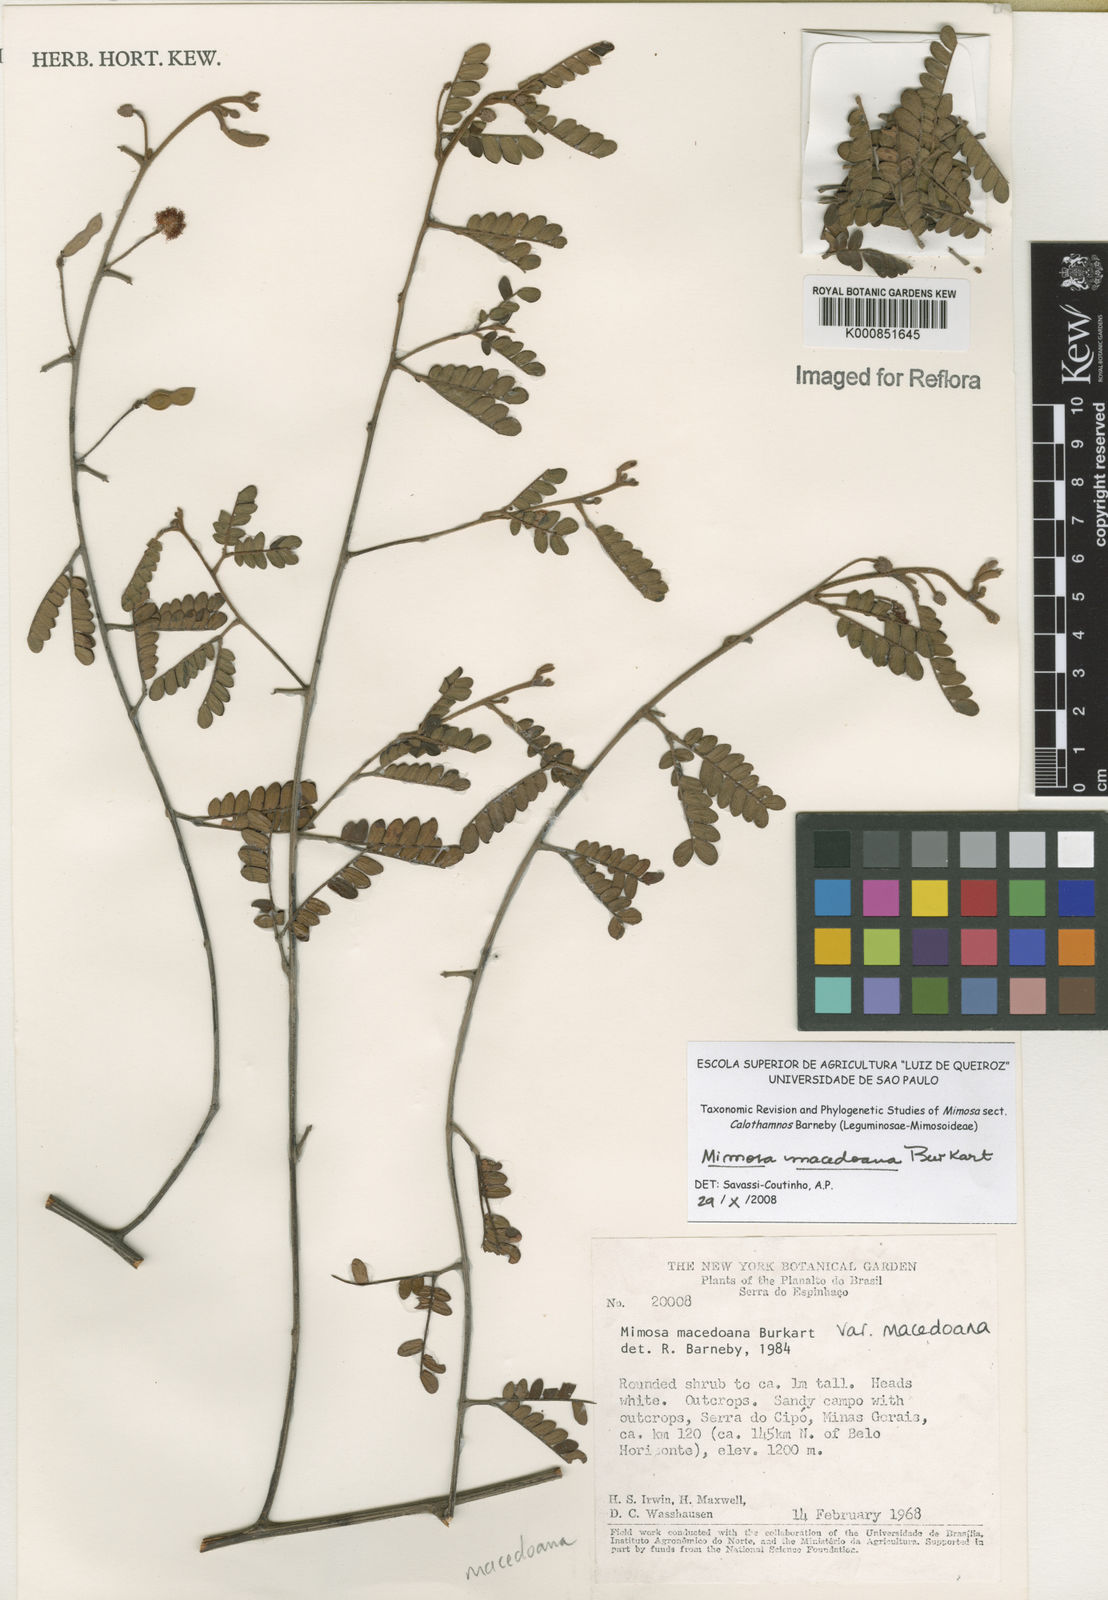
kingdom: Plantae
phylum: Tracheophyta
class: Magnoliopsida
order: Fabales
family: Fabaceae
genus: Mimosa
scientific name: Mimosa macedoana
